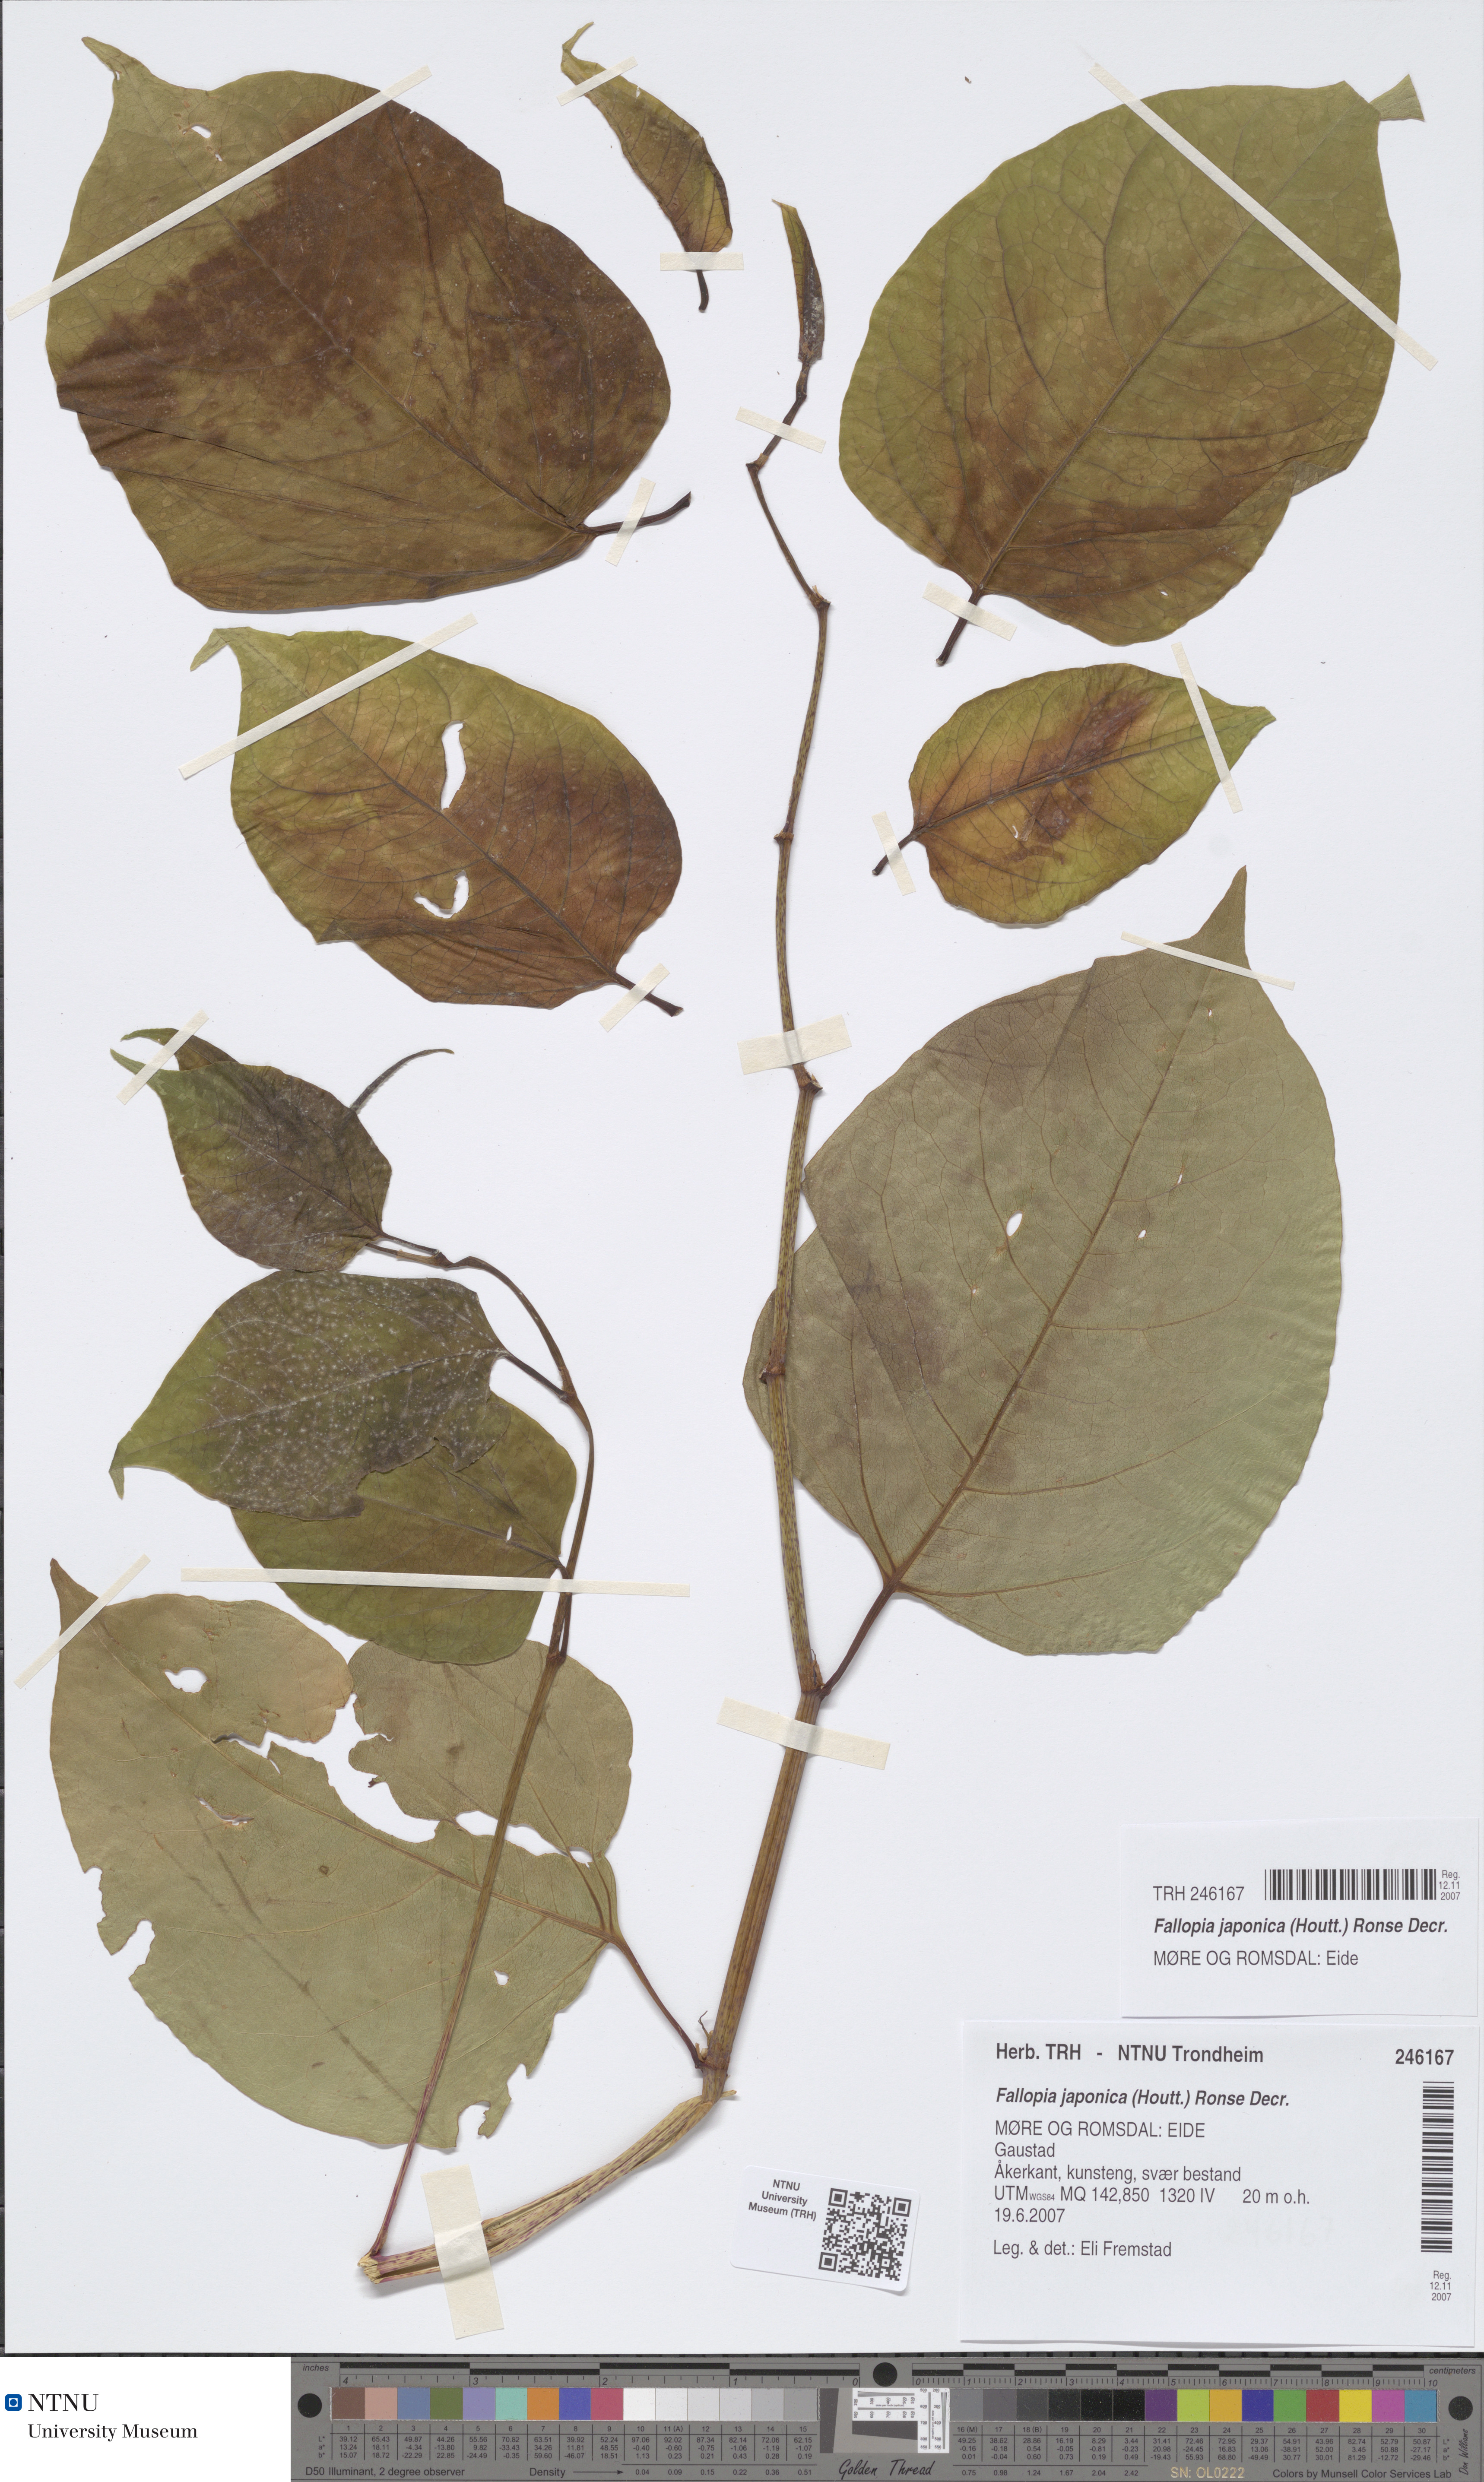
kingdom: Plantae
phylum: Tracheophyta
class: Magnoliopsida
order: Caryophyllales
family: Polygonaceae
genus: Reynoutria
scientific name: Reynoutria japonica
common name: Japanese knotweed
